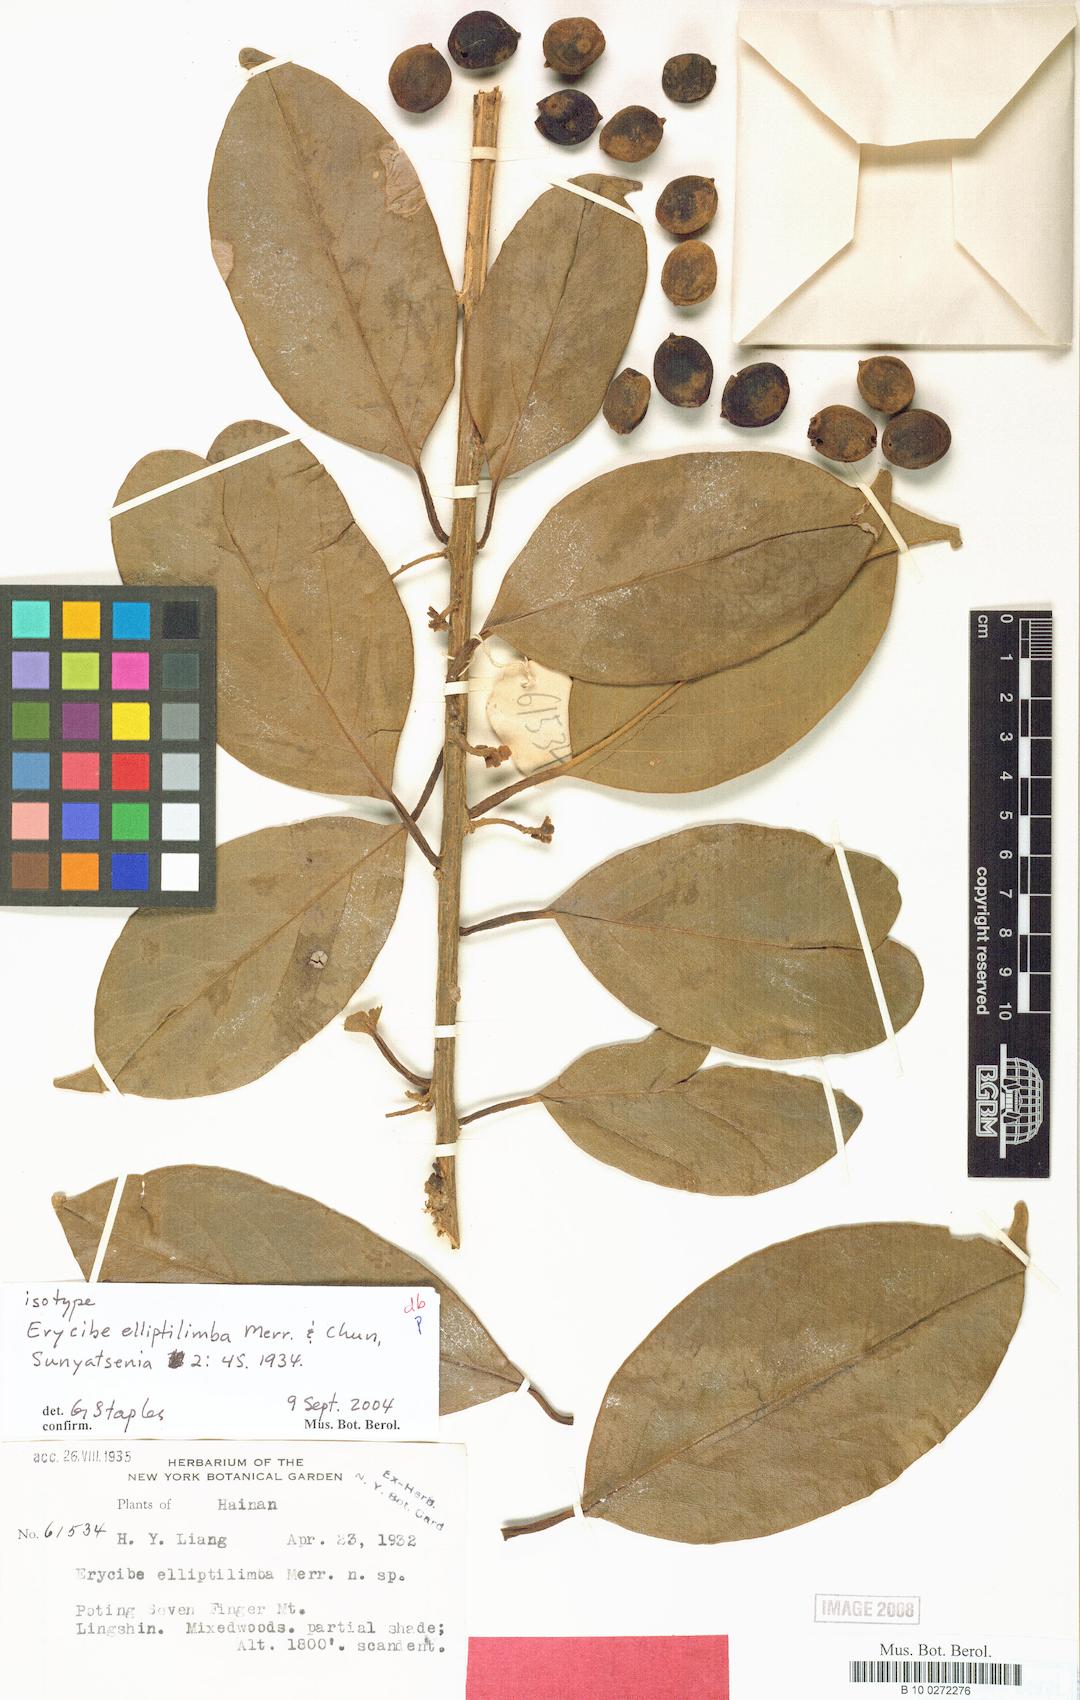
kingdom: Plantae
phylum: Tracheophyta
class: Magnoliopsida
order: Solanales
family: Convolvulaceae
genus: Erycibe
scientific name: Erycibe elliptilimba
